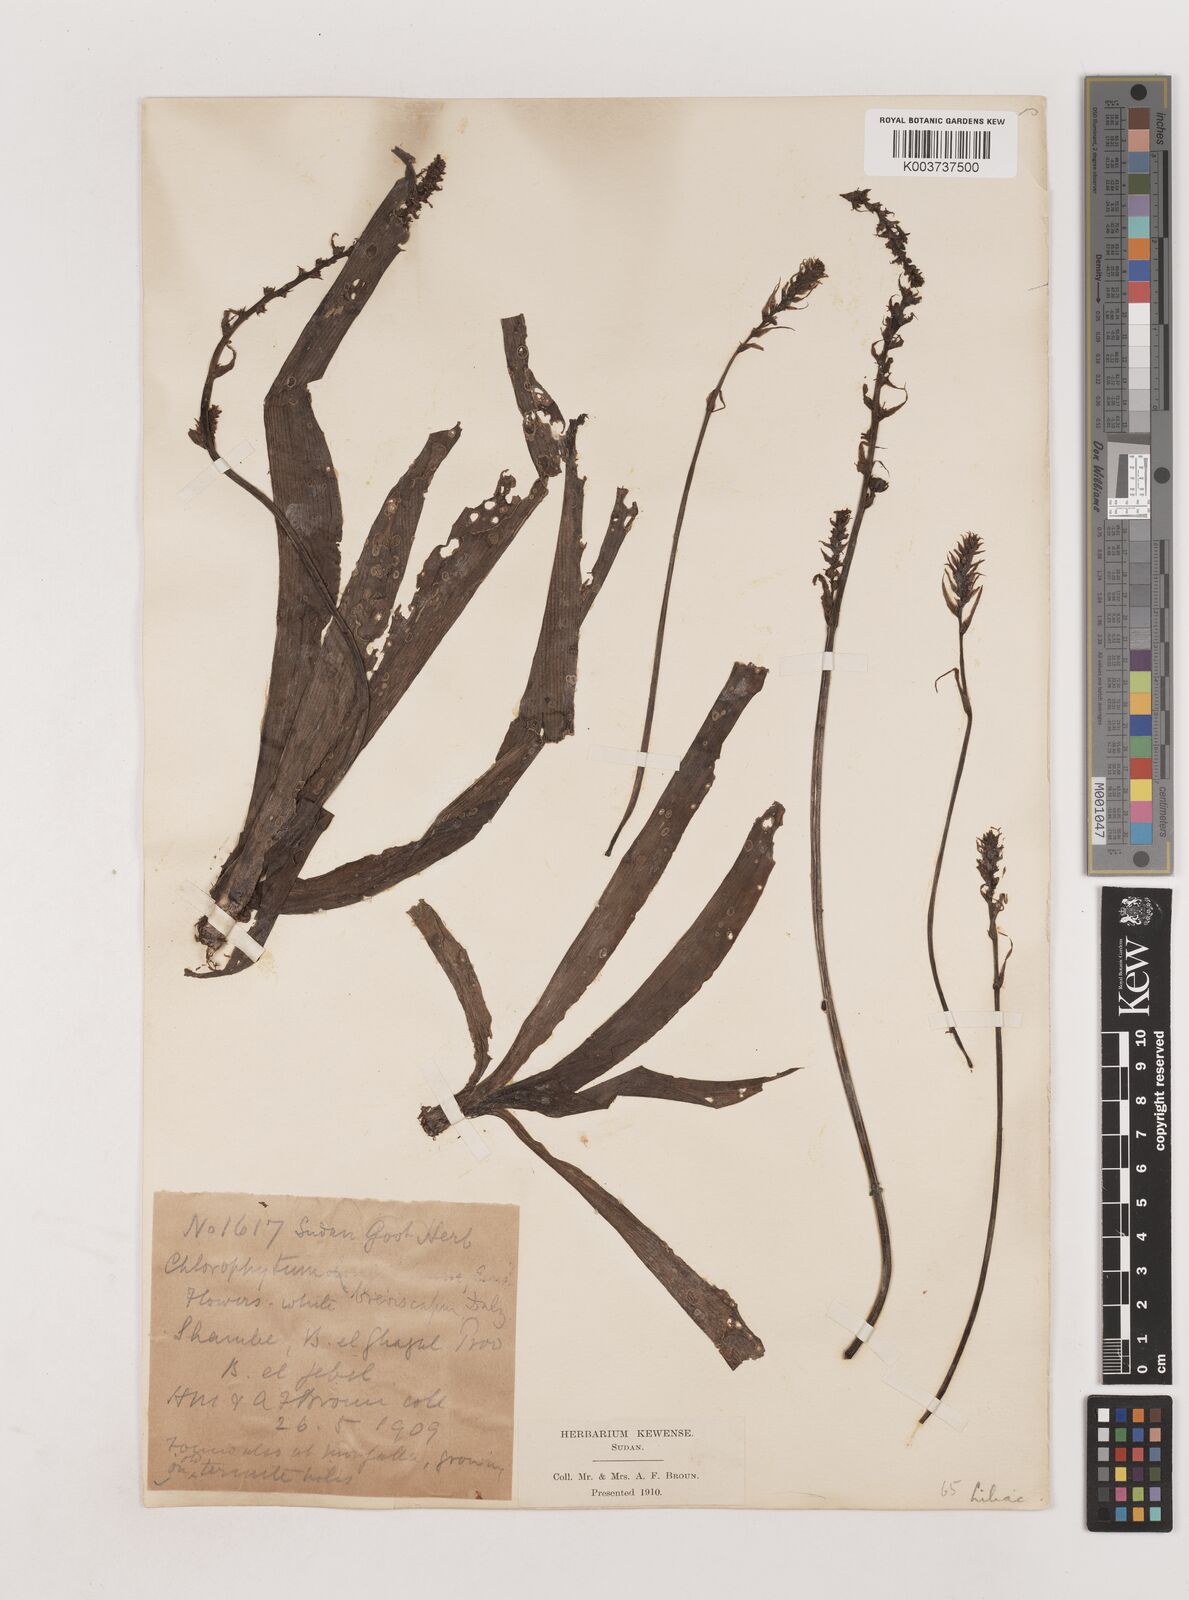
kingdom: Plantae
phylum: Tracheophyta
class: Liliopsida
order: Asparagales
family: Asparagaceae
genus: Chlorophytum
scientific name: Chlorophytum macrophyllum
